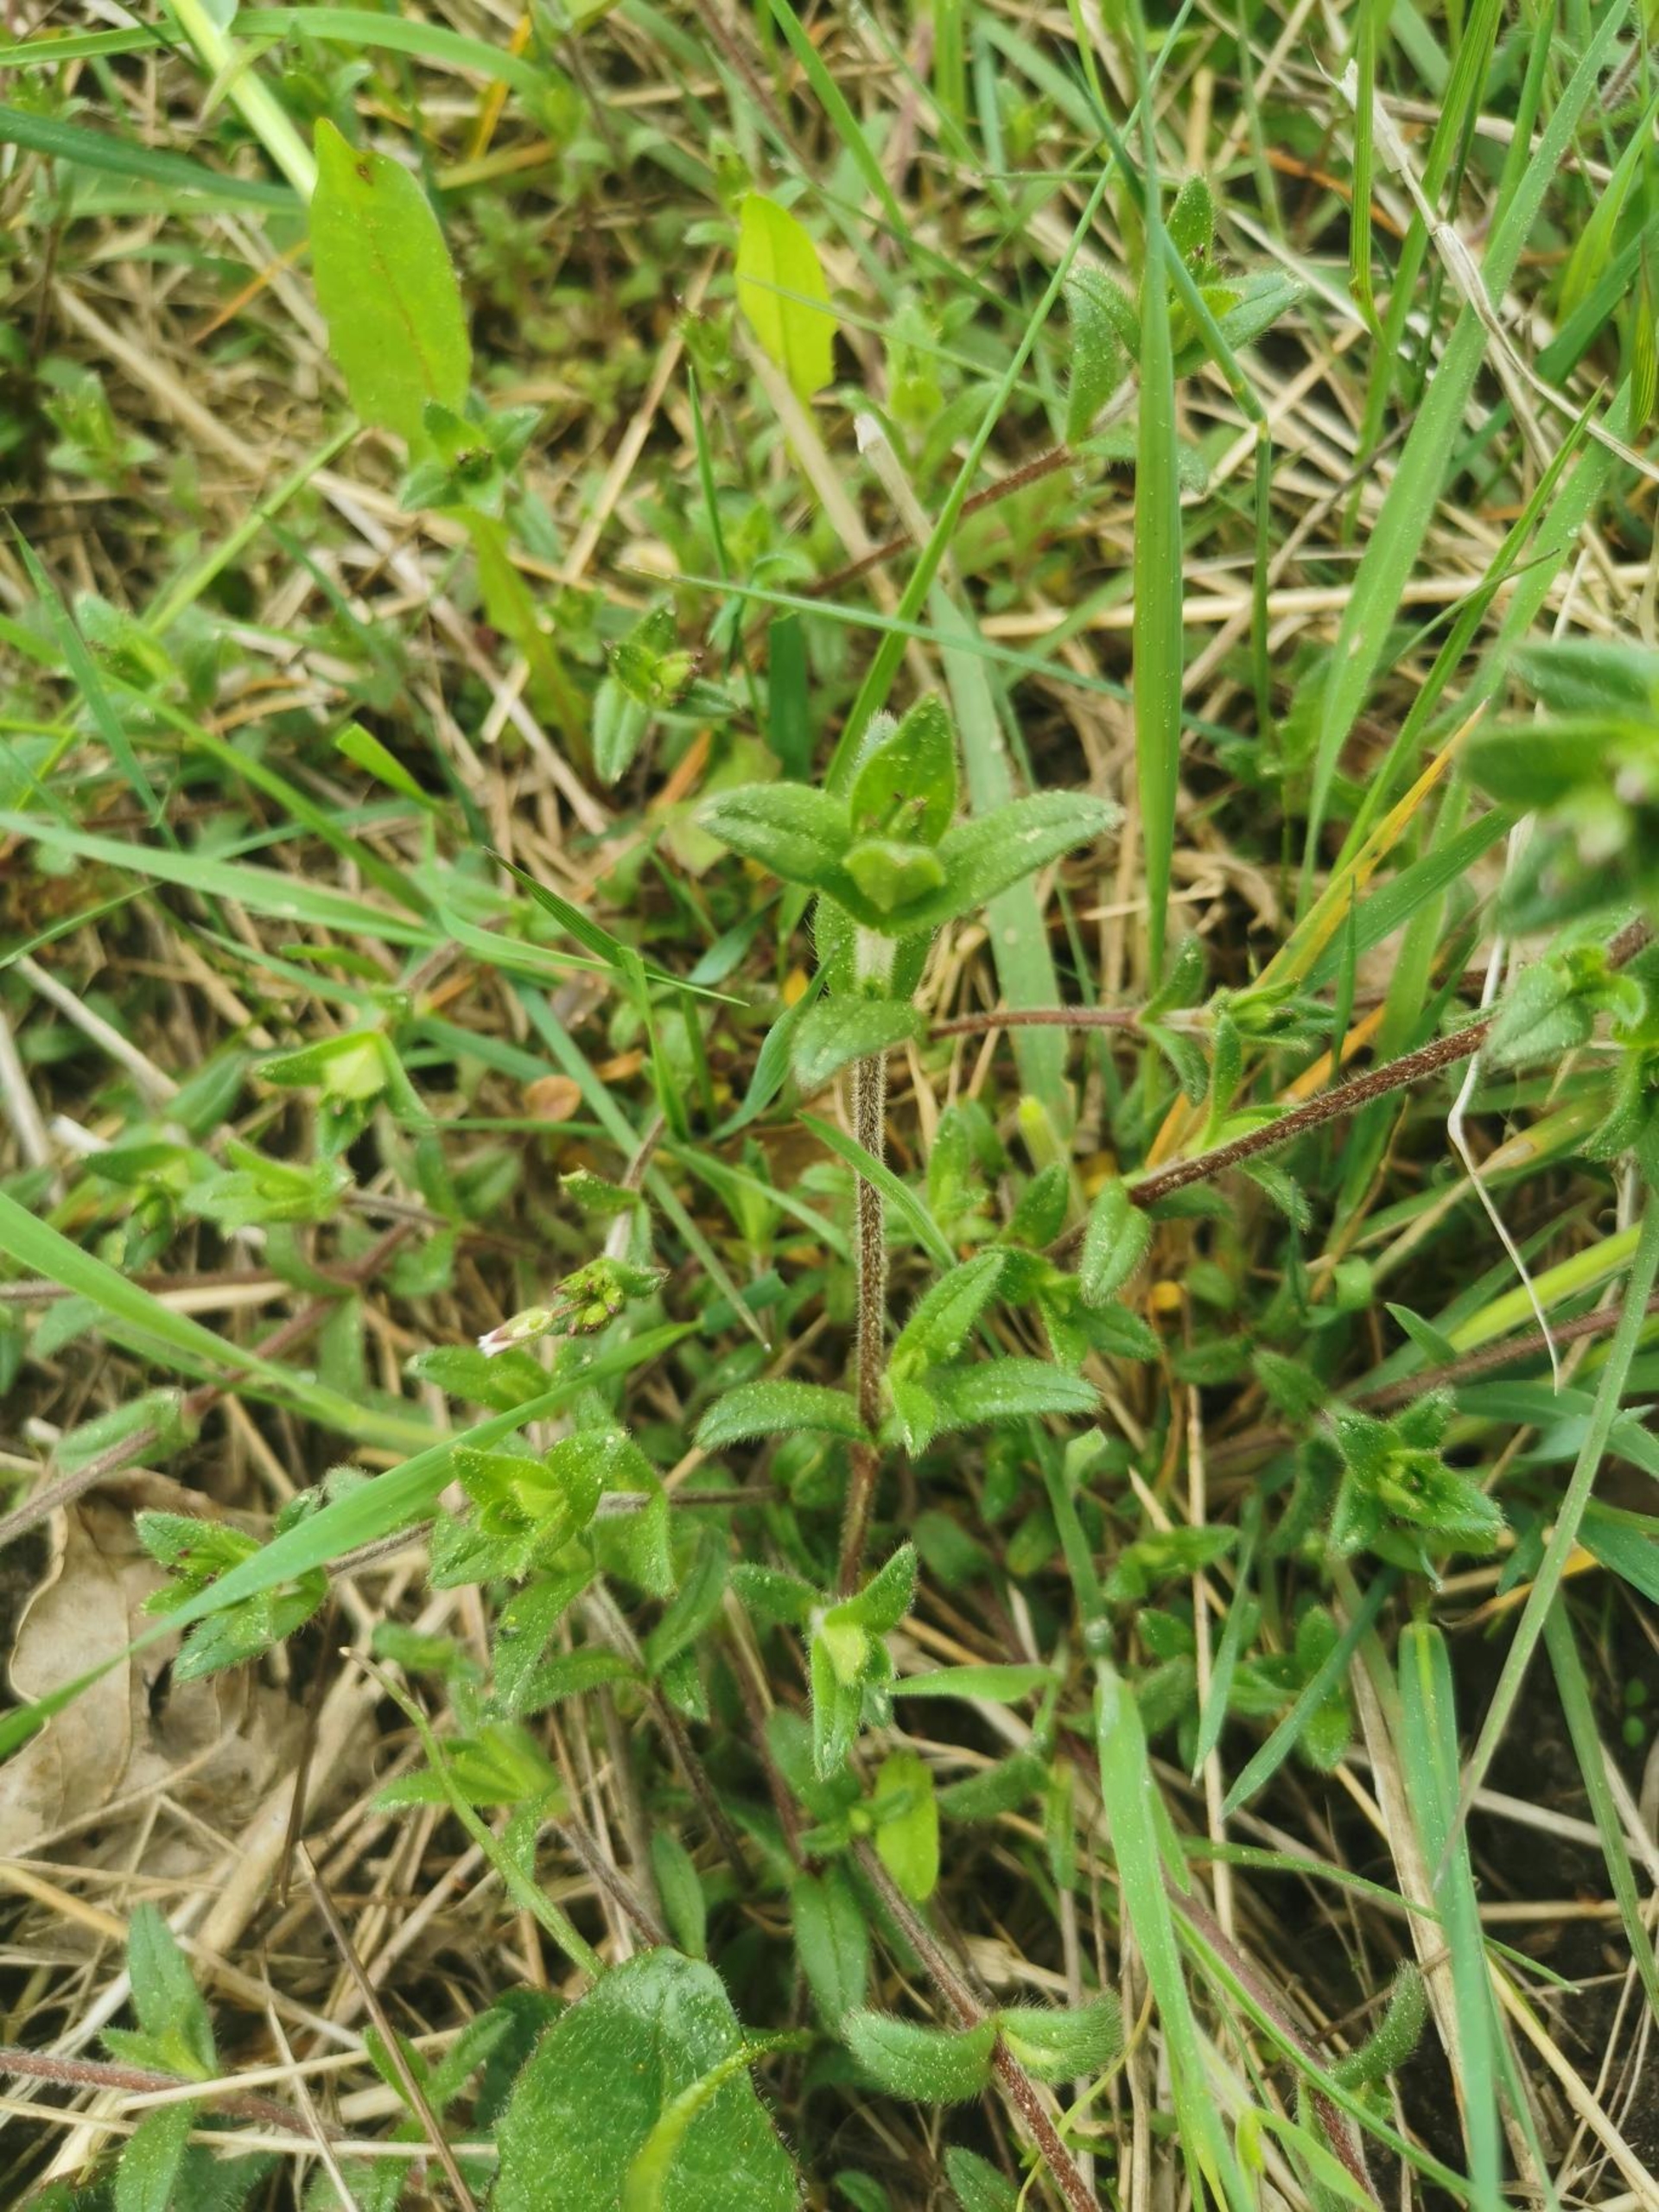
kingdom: Plantae
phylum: Tracheophyta
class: Magnoliopsida
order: Caryophyllales
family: Caryophyllaceae
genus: Cerastium
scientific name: Cerastium fontanum
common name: Almindelig hønsetarm
